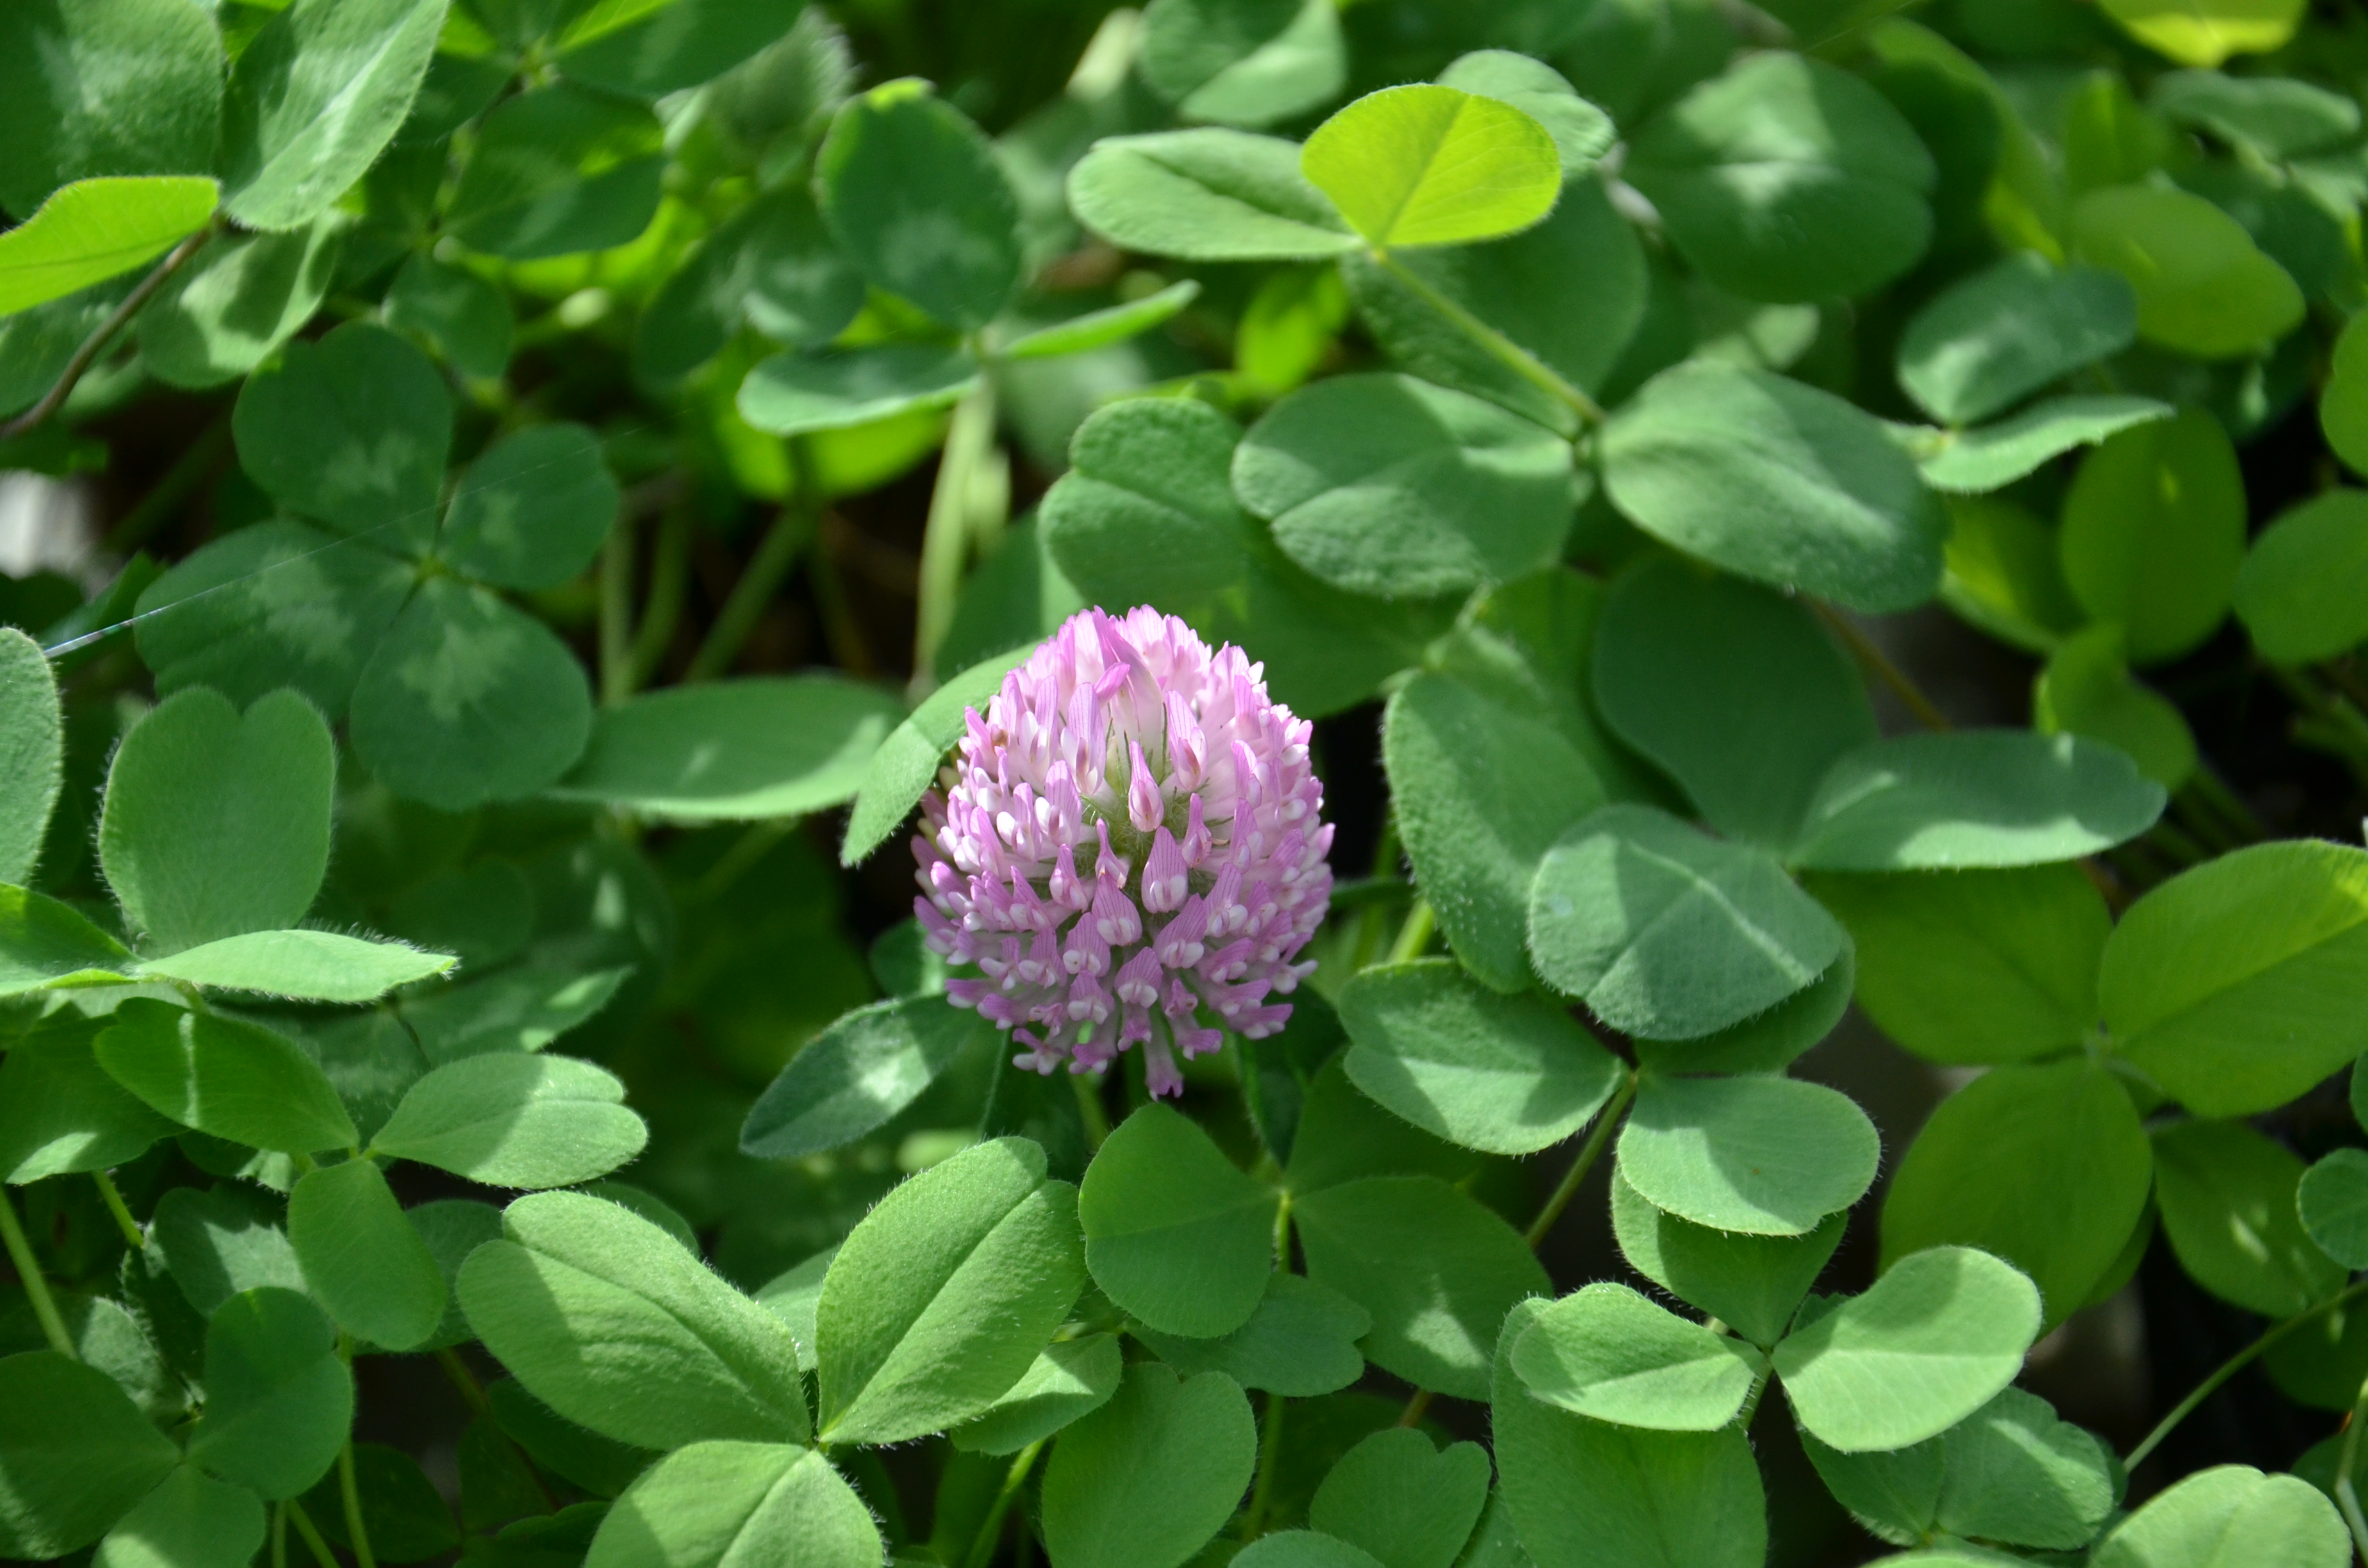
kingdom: Plantae
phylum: Tracheophyta
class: Magnoliopsida
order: Fabales
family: Fabaceae
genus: Trifolium
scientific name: Trifolium pratense
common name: Red clover
